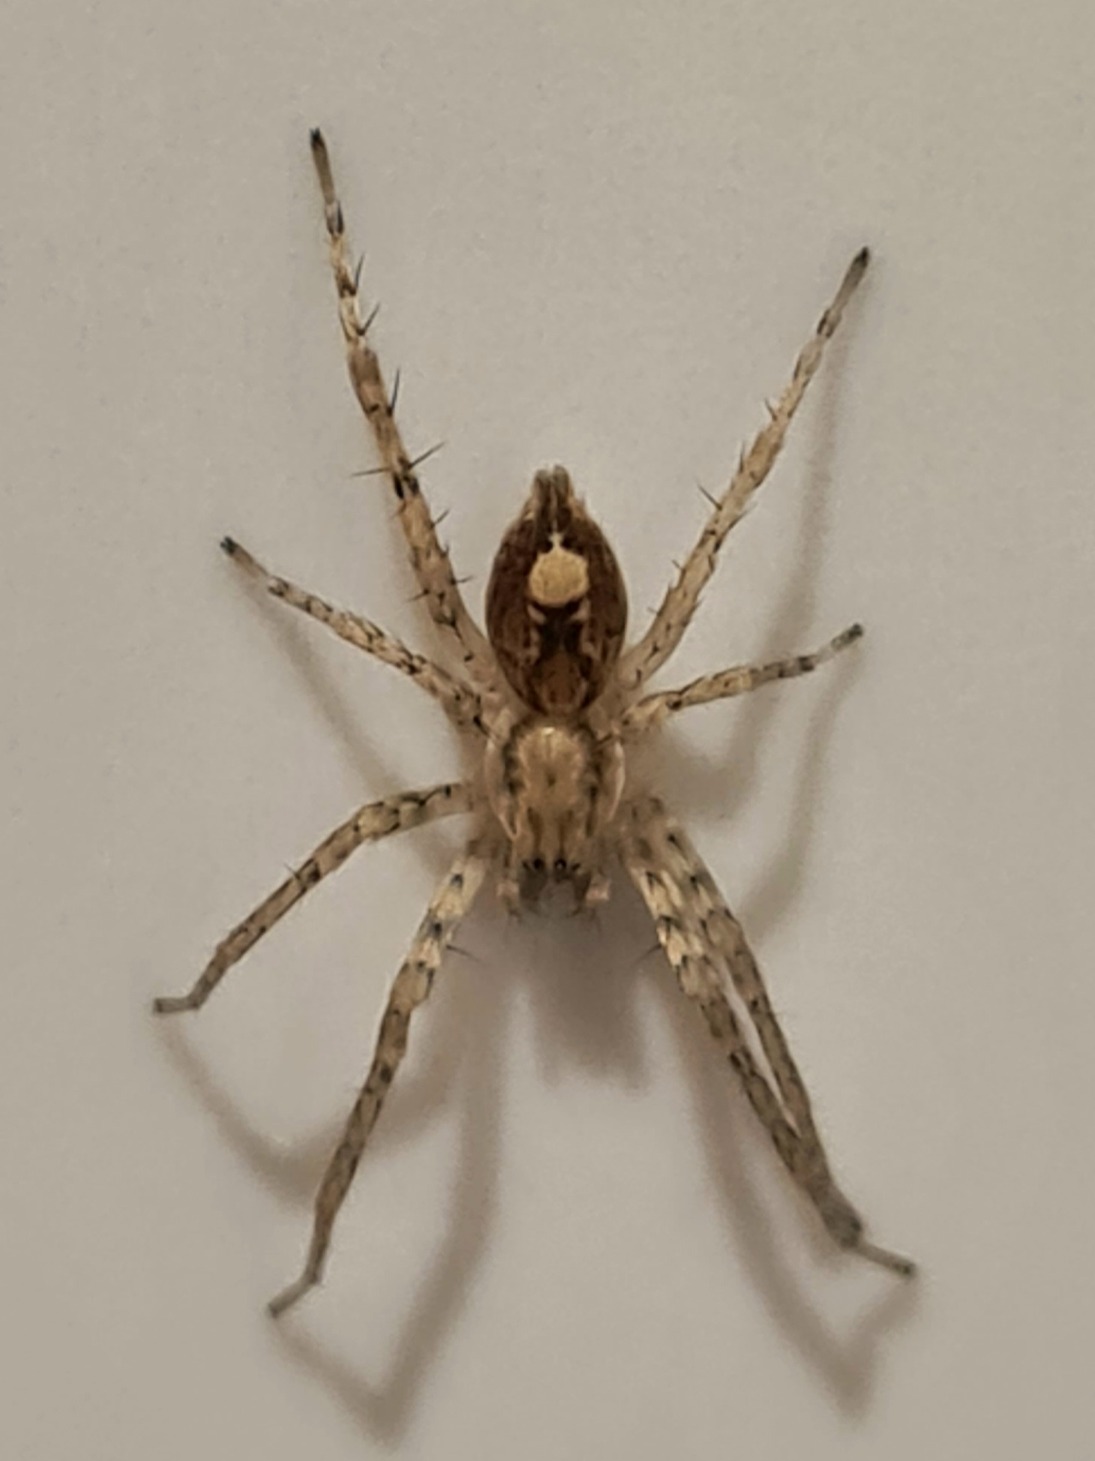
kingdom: Animalia
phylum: Arthropoda
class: Arachnida
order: Araneae
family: Anyphaenidae
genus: Anyphaena
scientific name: Anyphaena accentuata
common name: Summeedderkop
